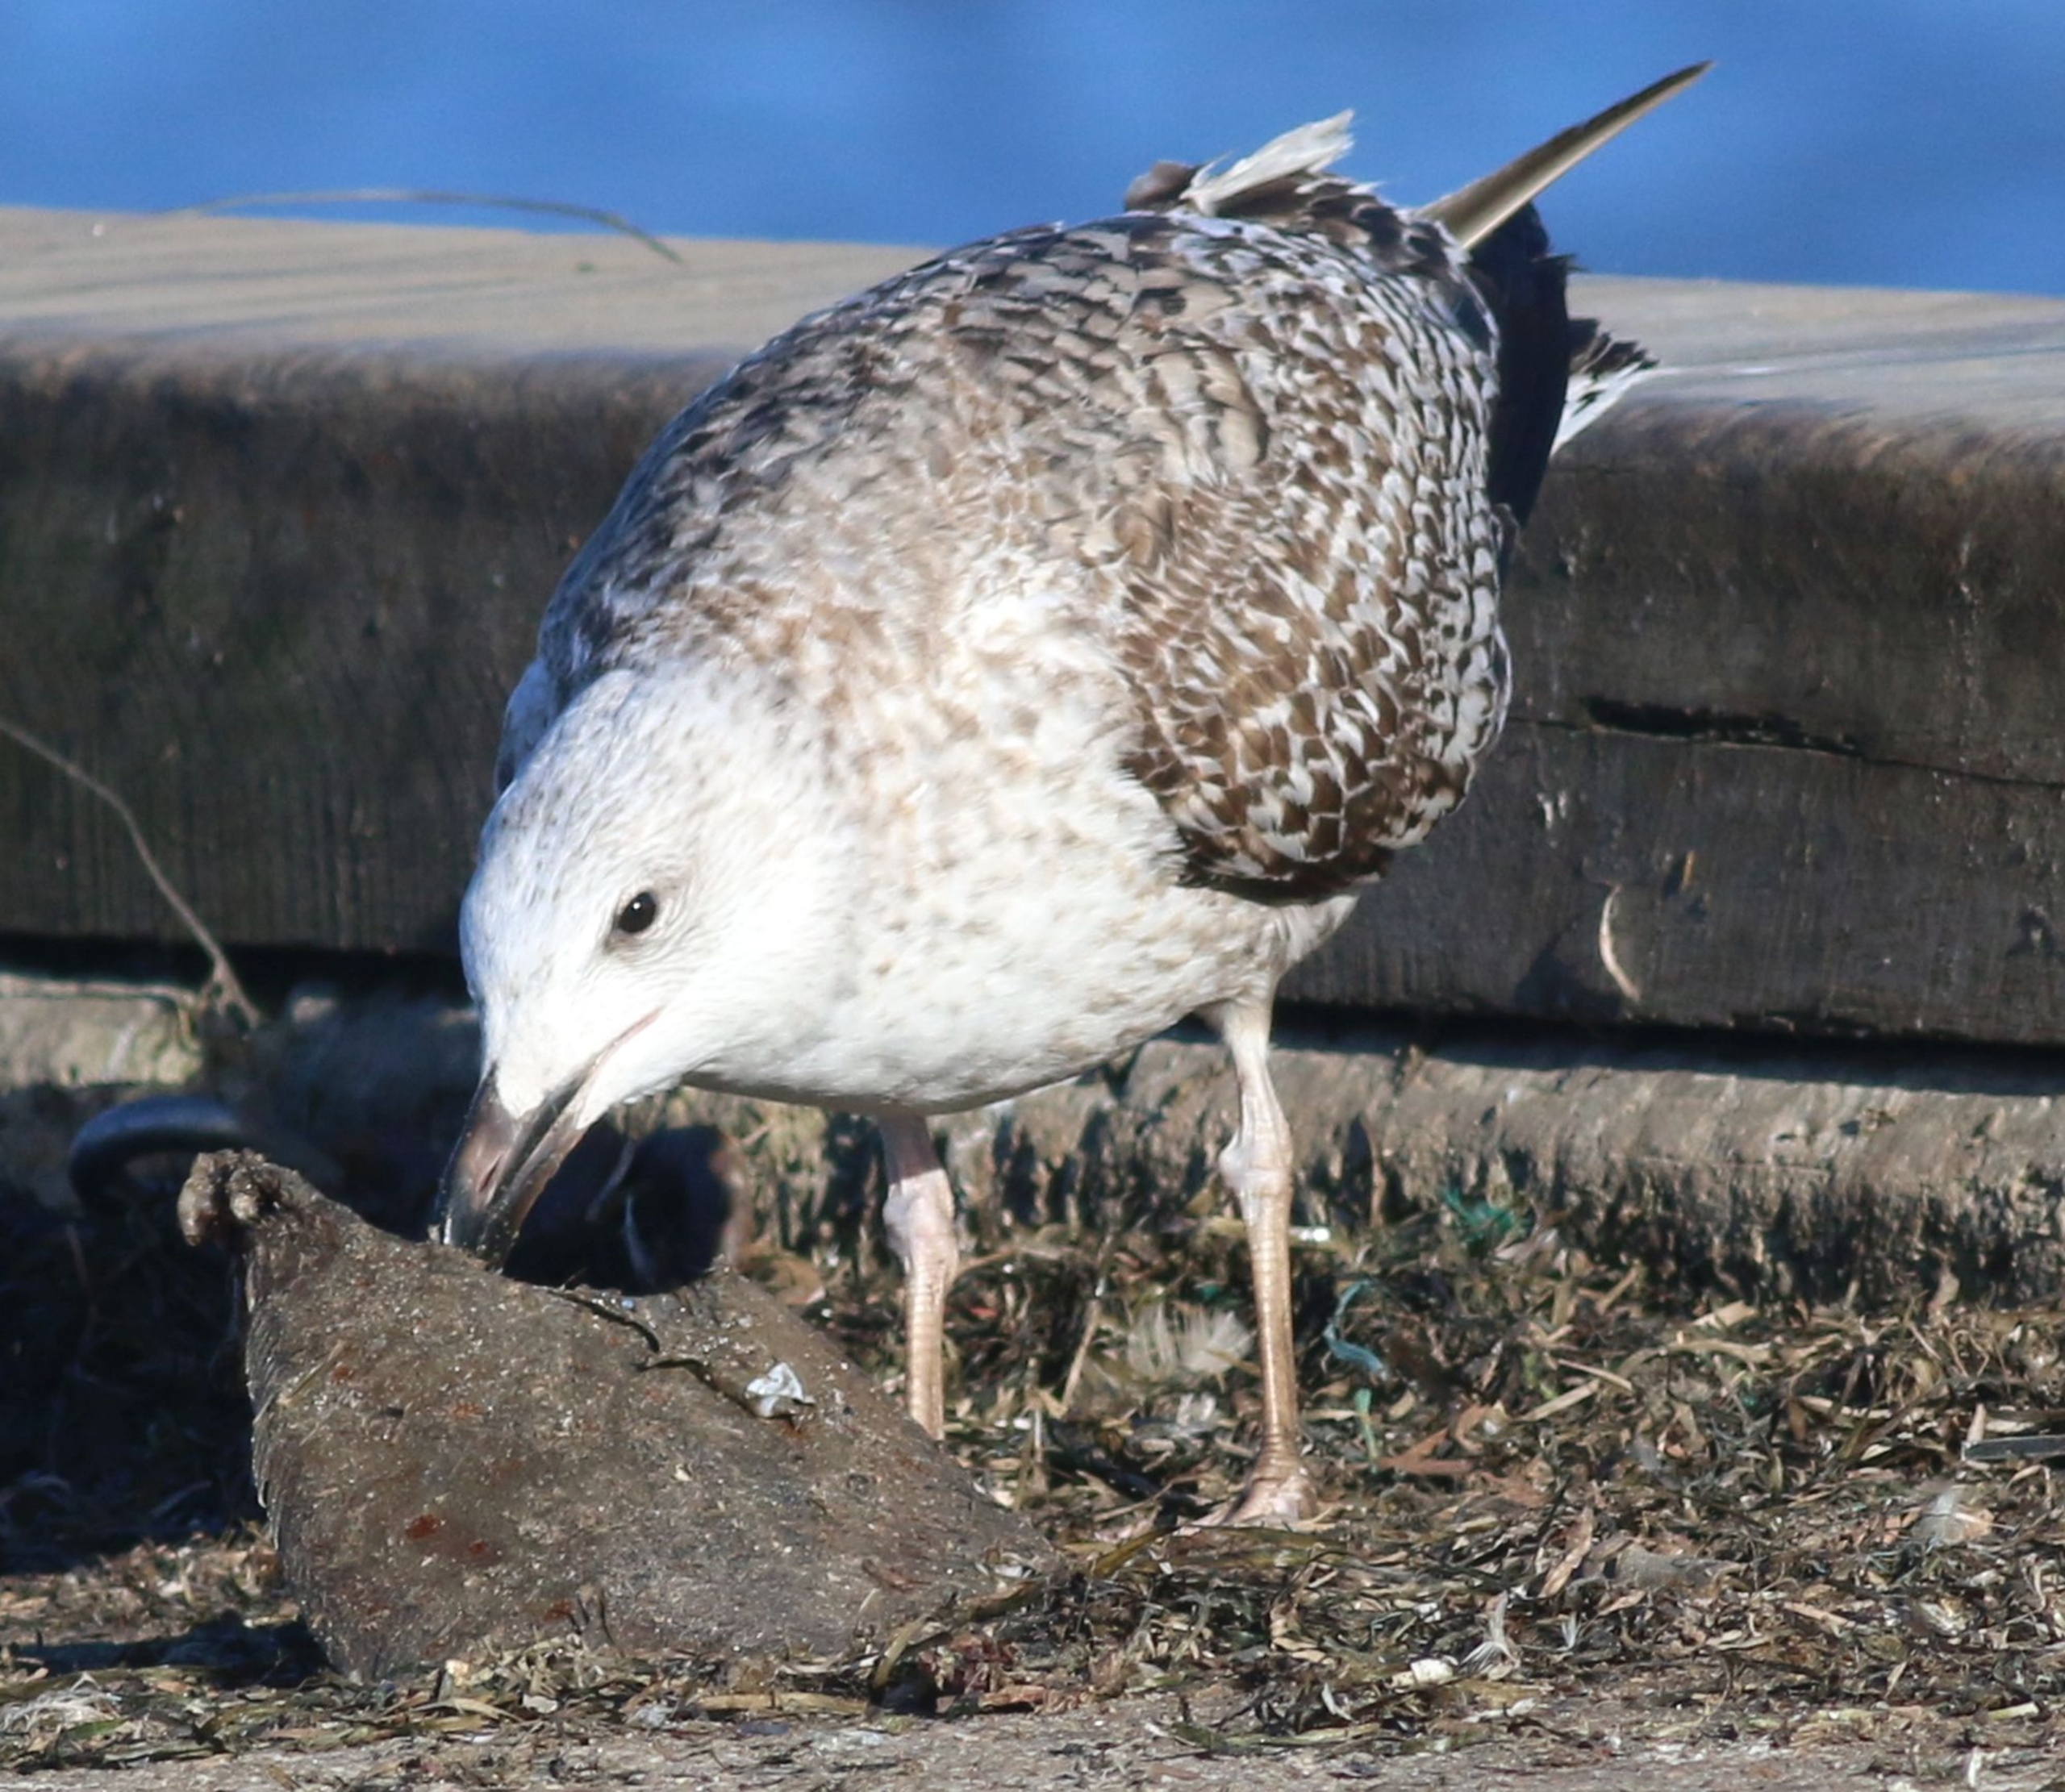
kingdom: Animalia
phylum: Chordata
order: Pleuronectiformes
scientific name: Pleuronectiformes
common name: Fladfiskeordenen
